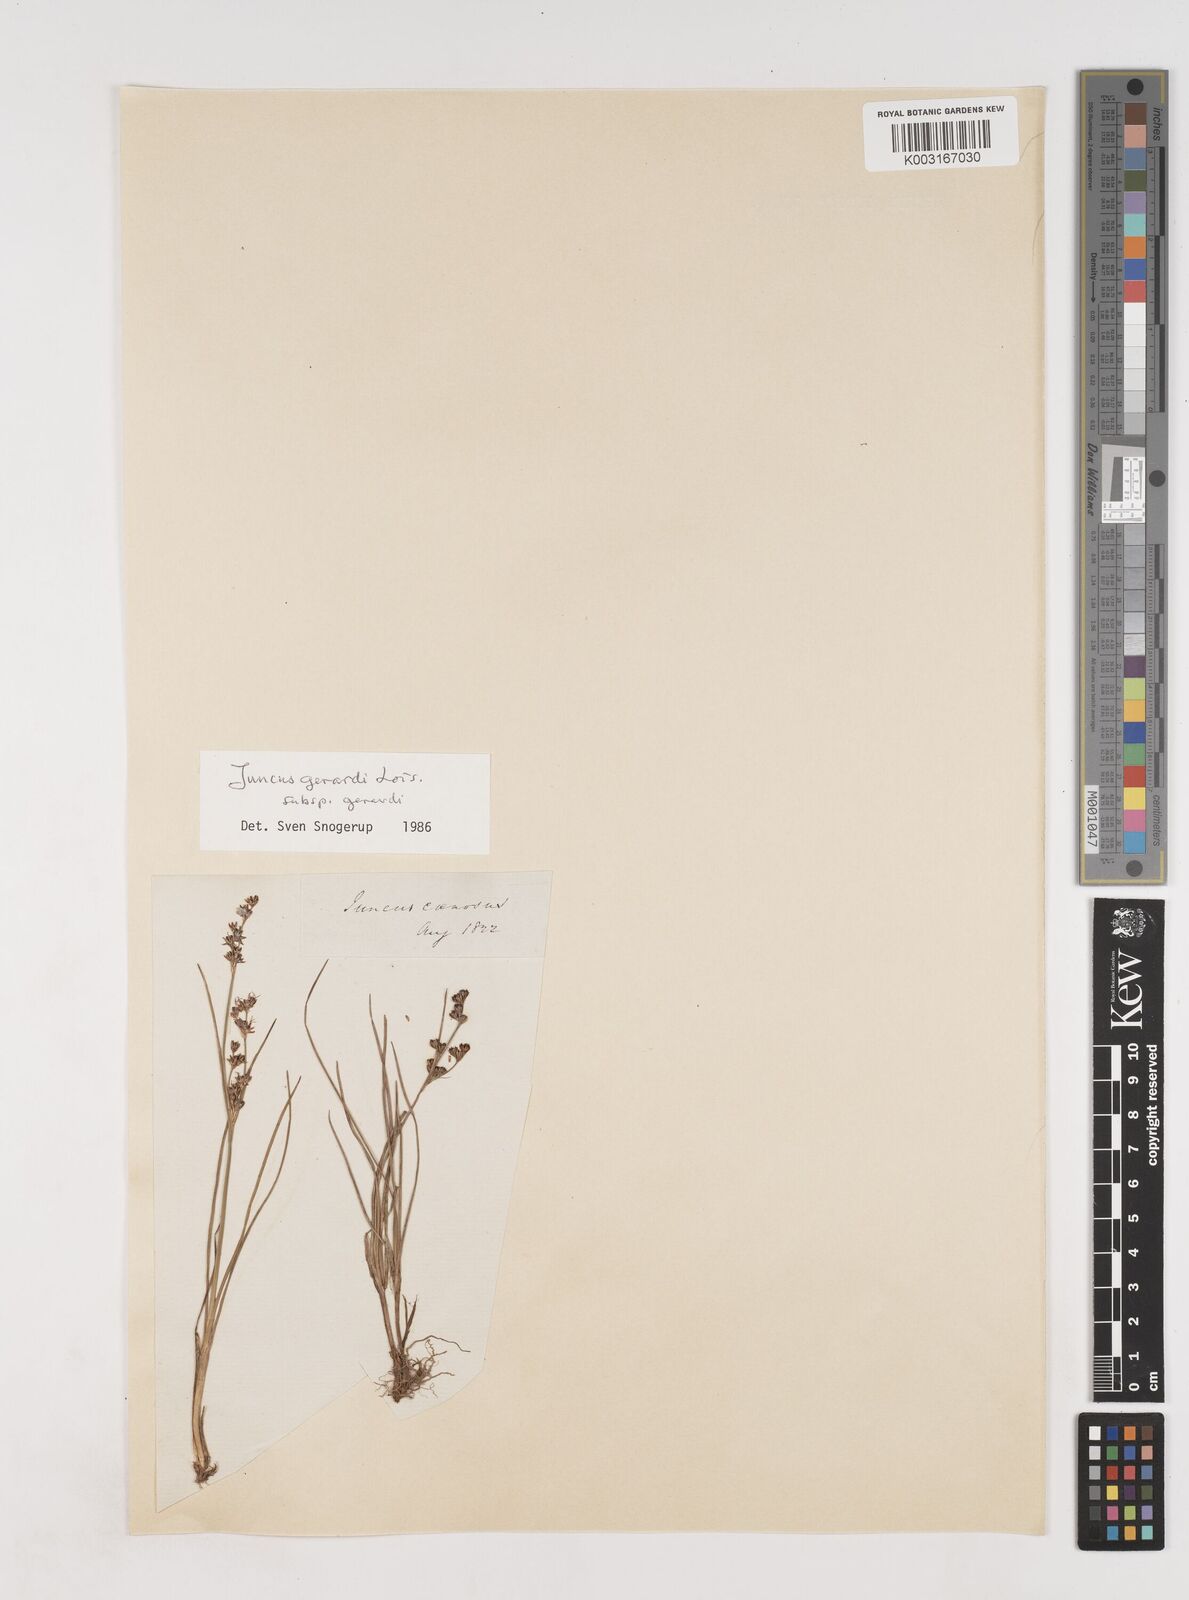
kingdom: Plantae
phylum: Tracheophyta
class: Liliopsida
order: Poales
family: Juncaceae
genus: Juncus
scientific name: Juncus gerardi
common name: Saltmarsh rush
